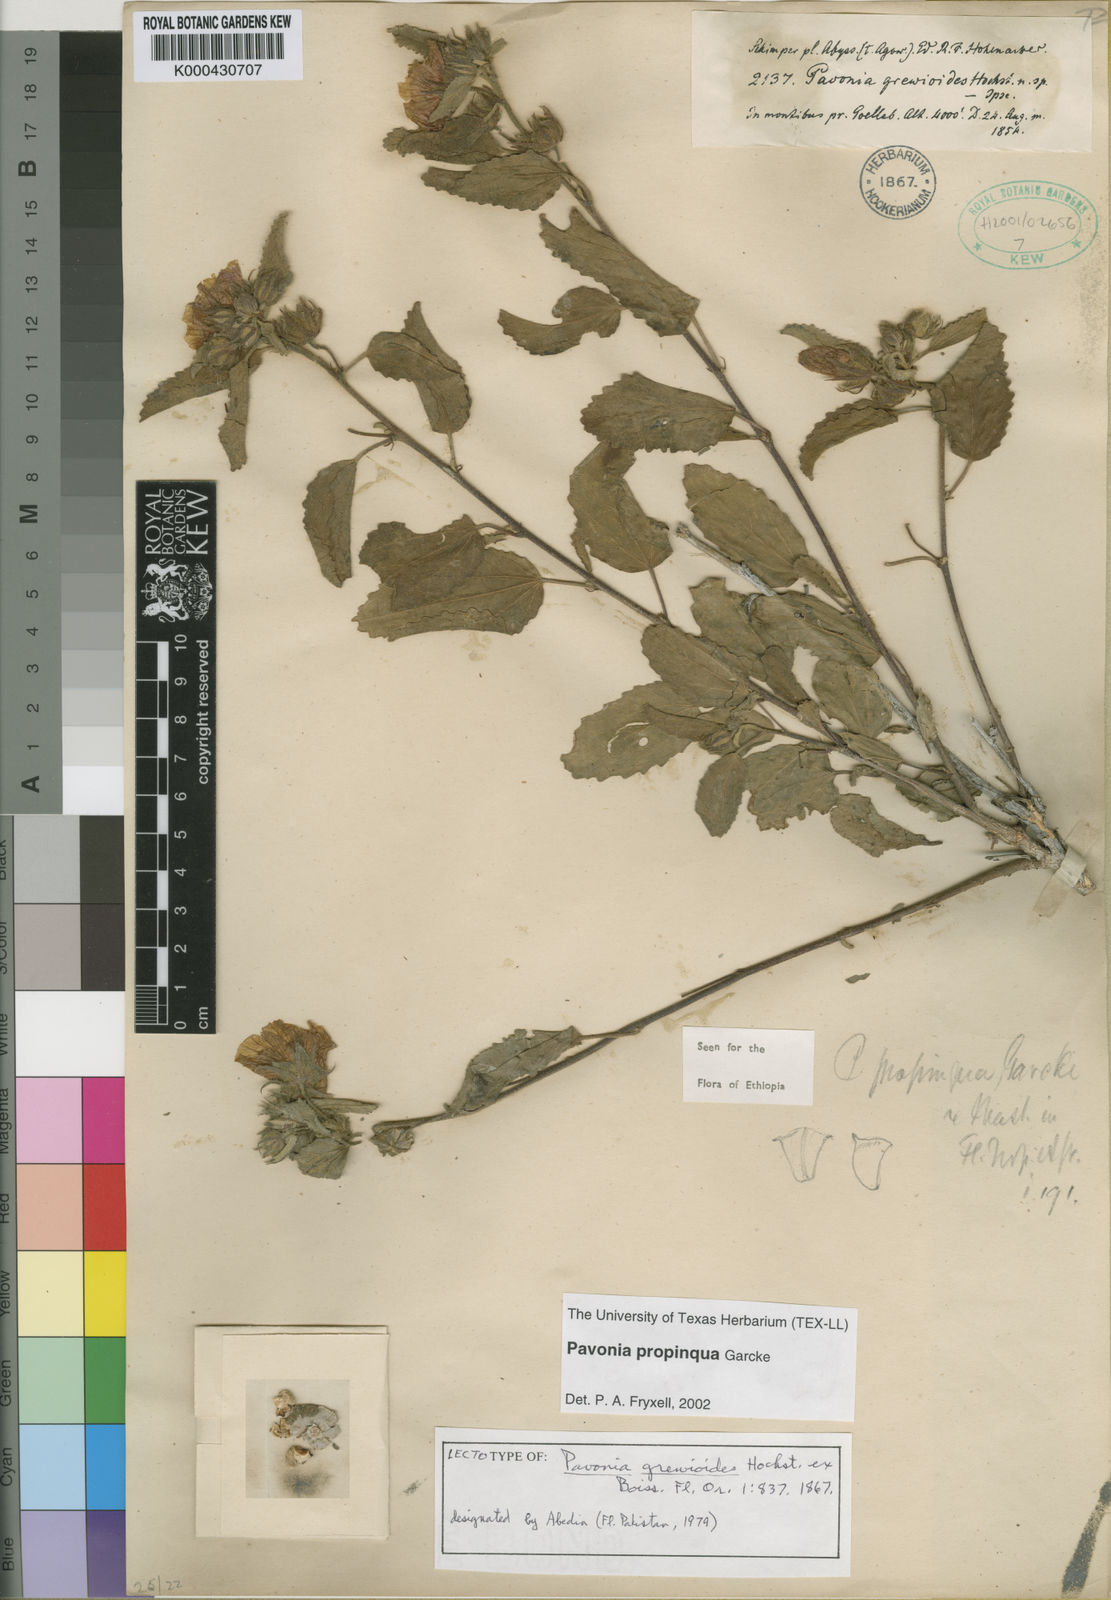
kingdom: Plantae
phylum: Tracheophyta
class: Magnoliopsida
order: Malvales
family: Malvaceae
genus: Pavonia
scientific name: Pavonia propinqua
